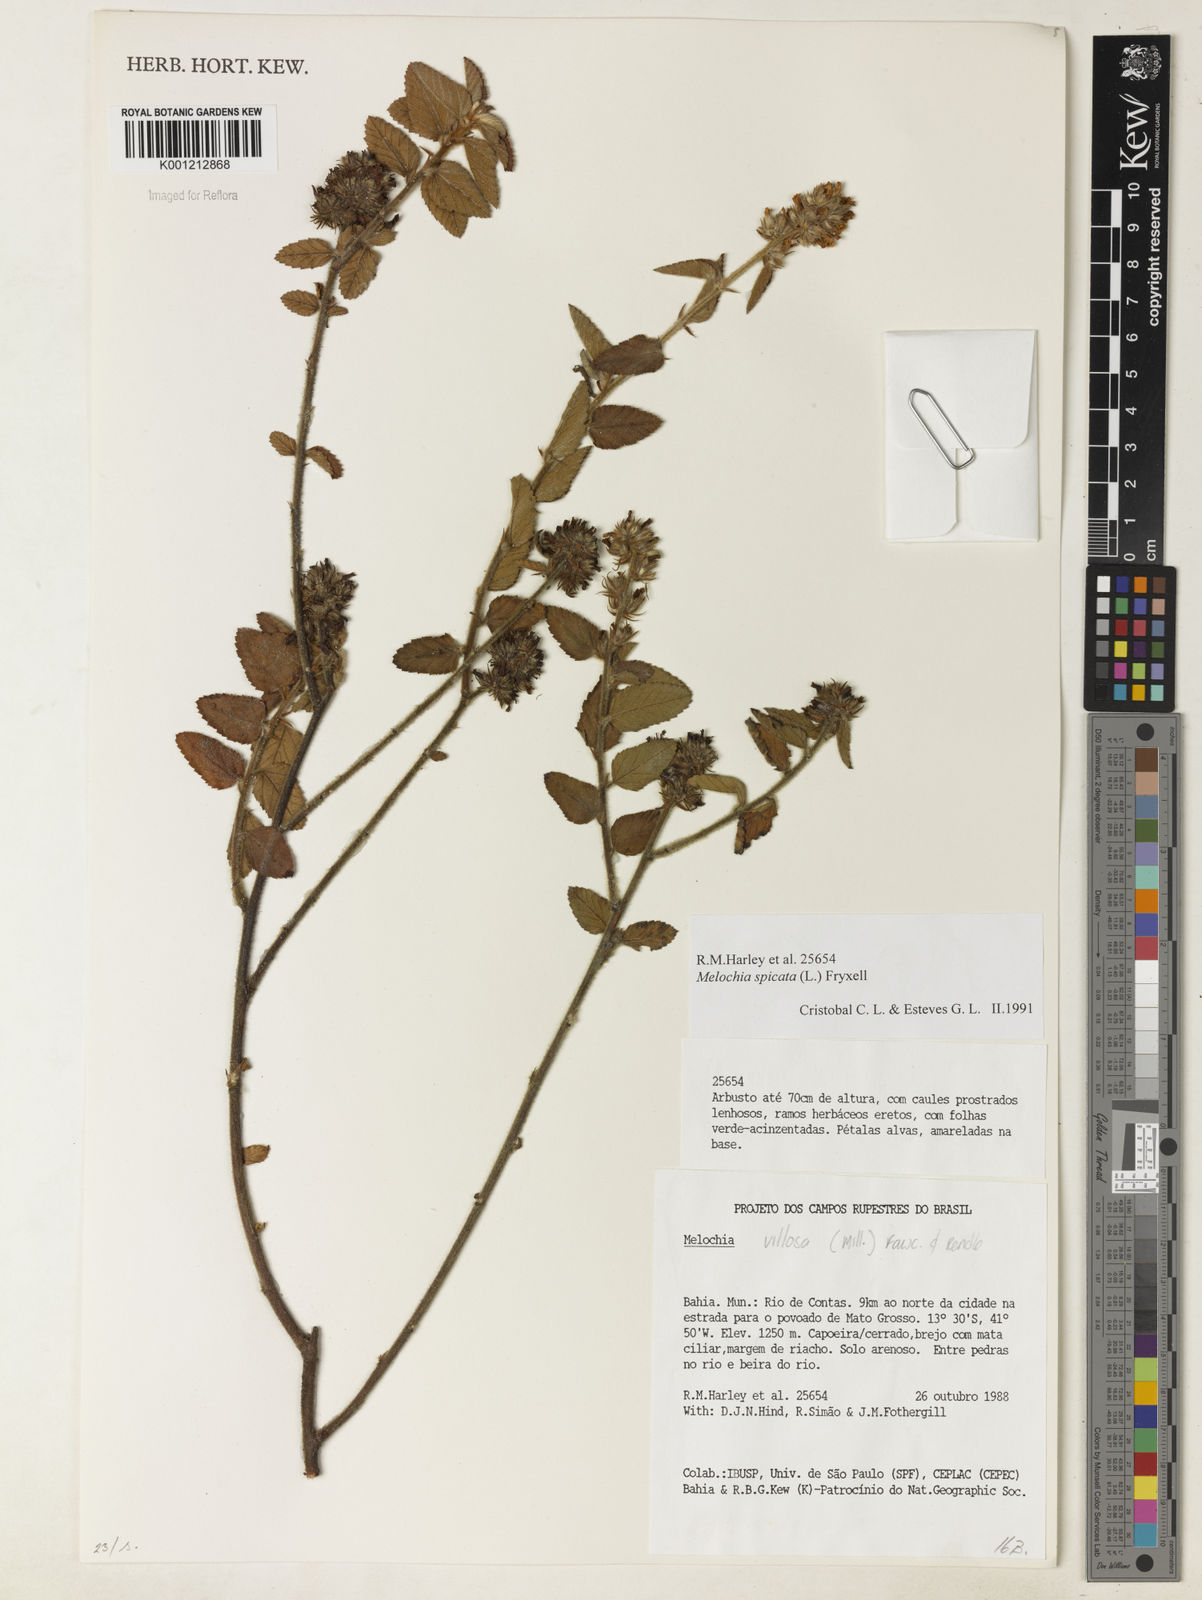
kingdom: Plantae
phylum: Tracheophyta
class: Magnoliopsida
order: Malvales
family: Malvaceae
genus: Melochia
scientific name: Melochia spicata
